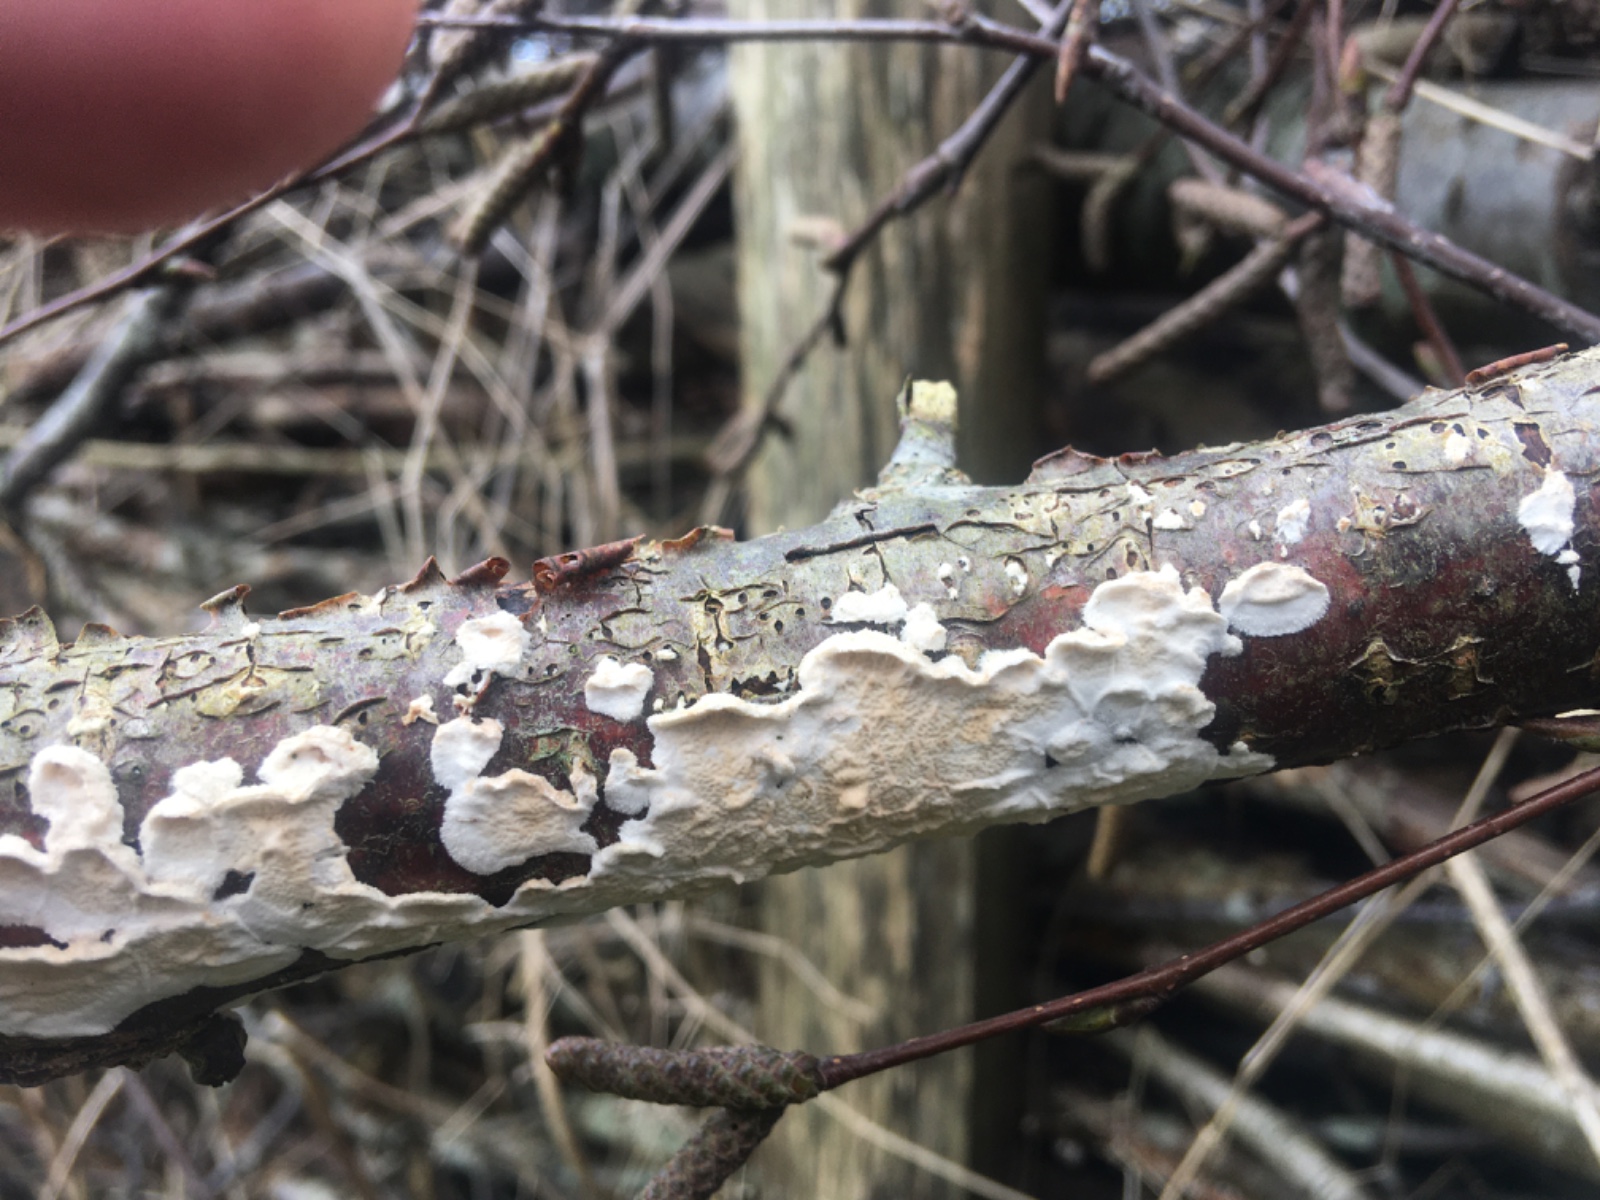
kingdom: Fungi
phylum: Basidiomycota
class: Agaricomycetes
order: Polyporales
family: Irpicaceae
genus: Byssomerulius
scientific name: Byssomerulius corium
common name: læder-åresvamp
